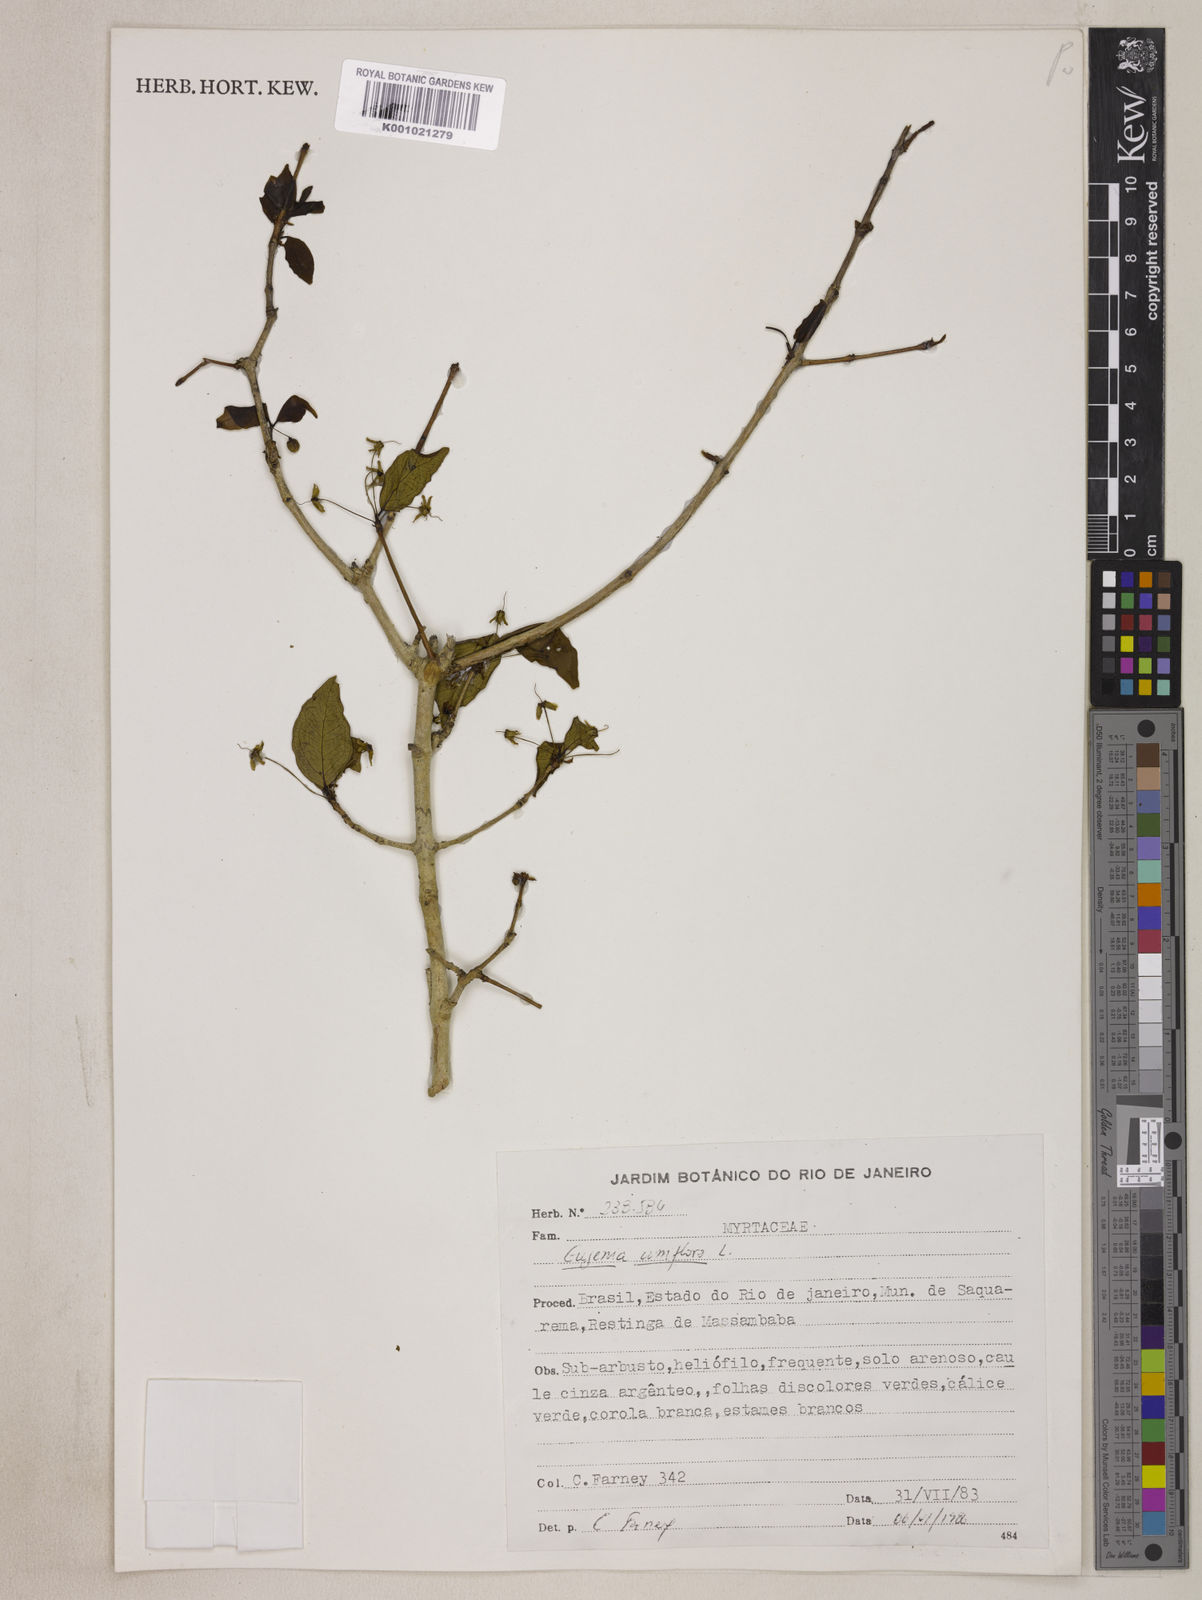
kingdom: Plantae
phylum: Tracheophyta
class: Magnoliopsida
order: Myrtales
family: Myrtaceae
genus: Eugenia
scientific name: Eugenia uniflora
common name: Surinam cherry
